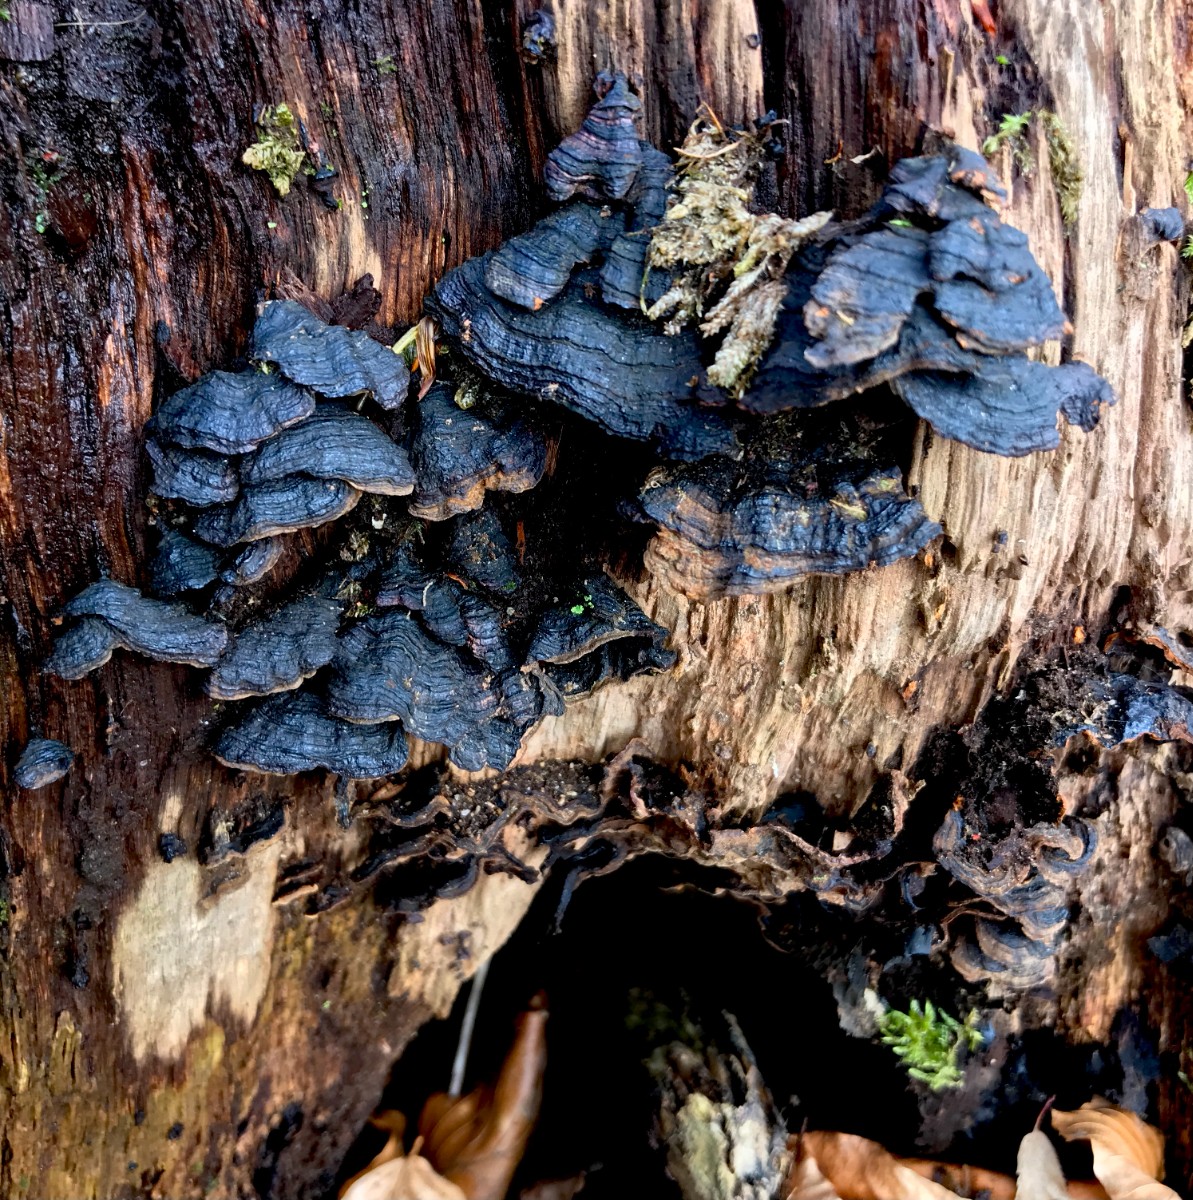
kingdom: Fungi
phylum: Basidiomycota
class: Agaricomycetes
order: Hymenochaetales
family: Hymenochaetaceae
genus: Hymenochaete
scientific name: Hymenochaete rubiginosa
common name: stiv ruslædersvamp
